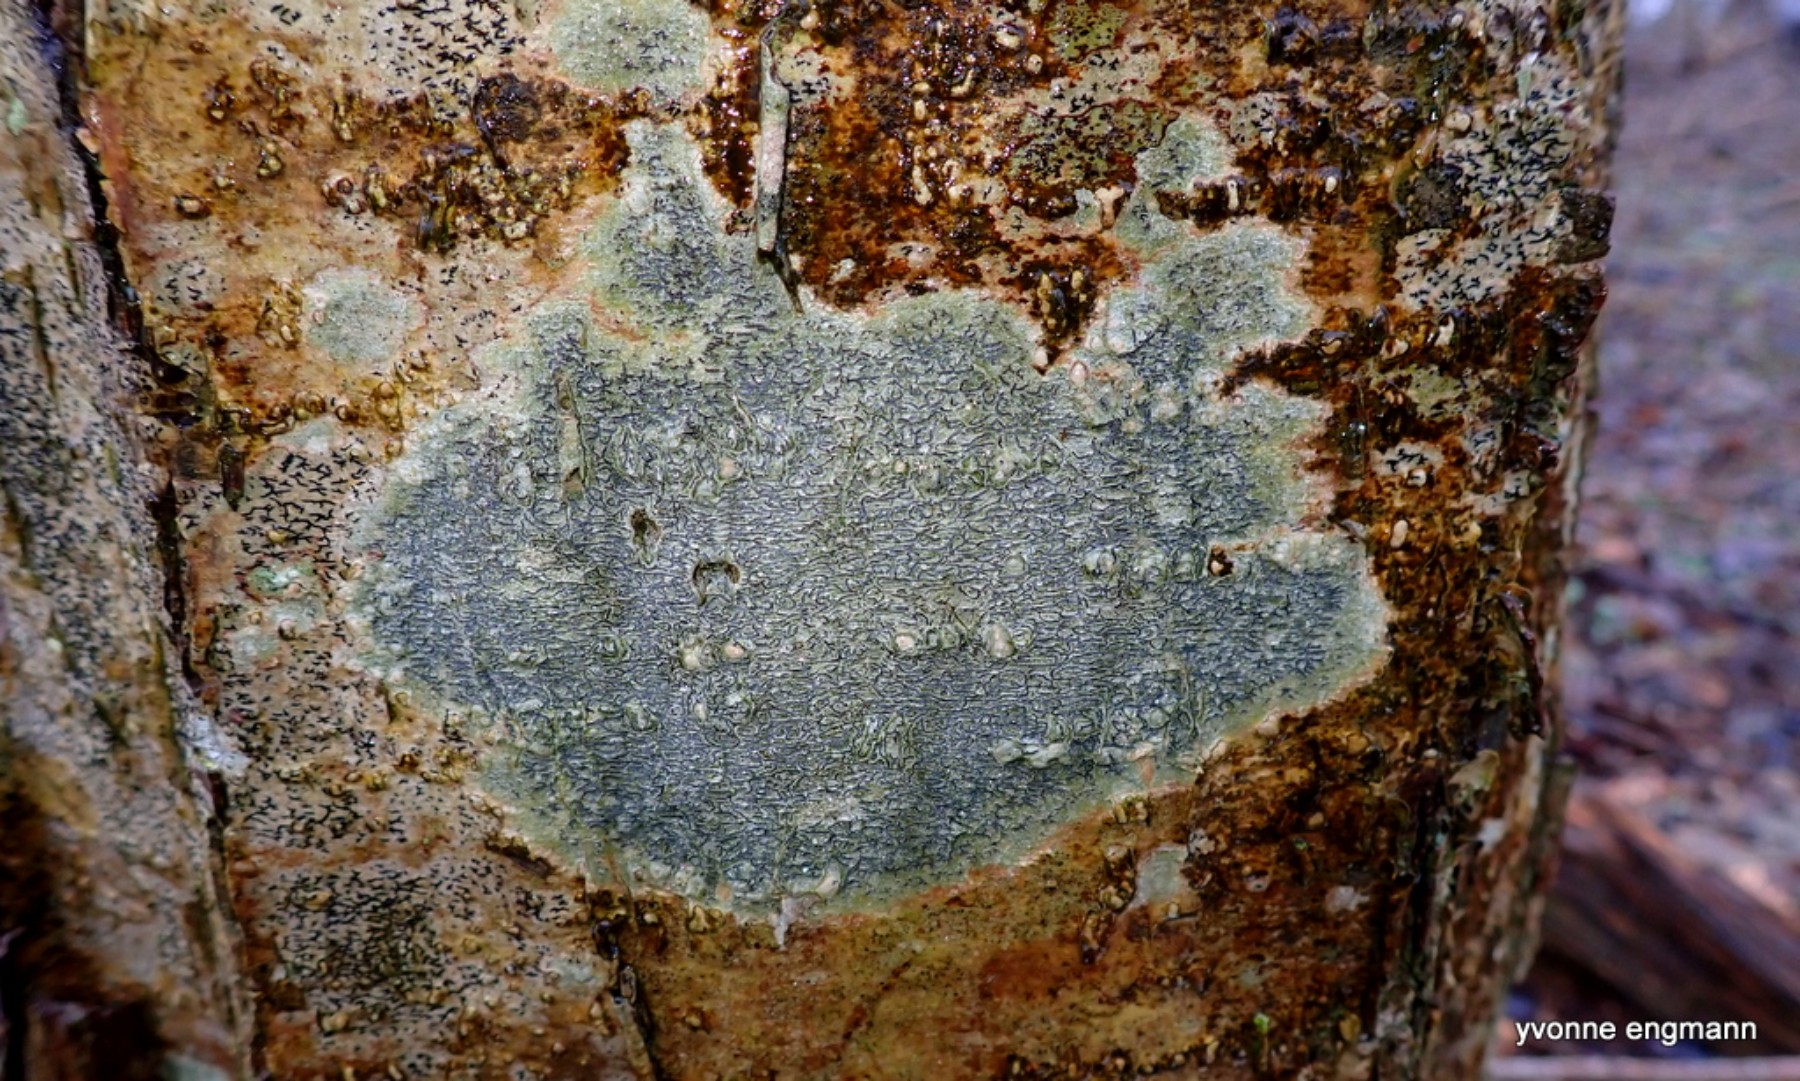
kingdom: Fungi
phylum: Ascomycota
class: Lecanoromycetes
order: Ostropales
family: Graphidaceae
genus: Graphis
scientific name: Graphis scripta
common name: almindelig skriftlav
